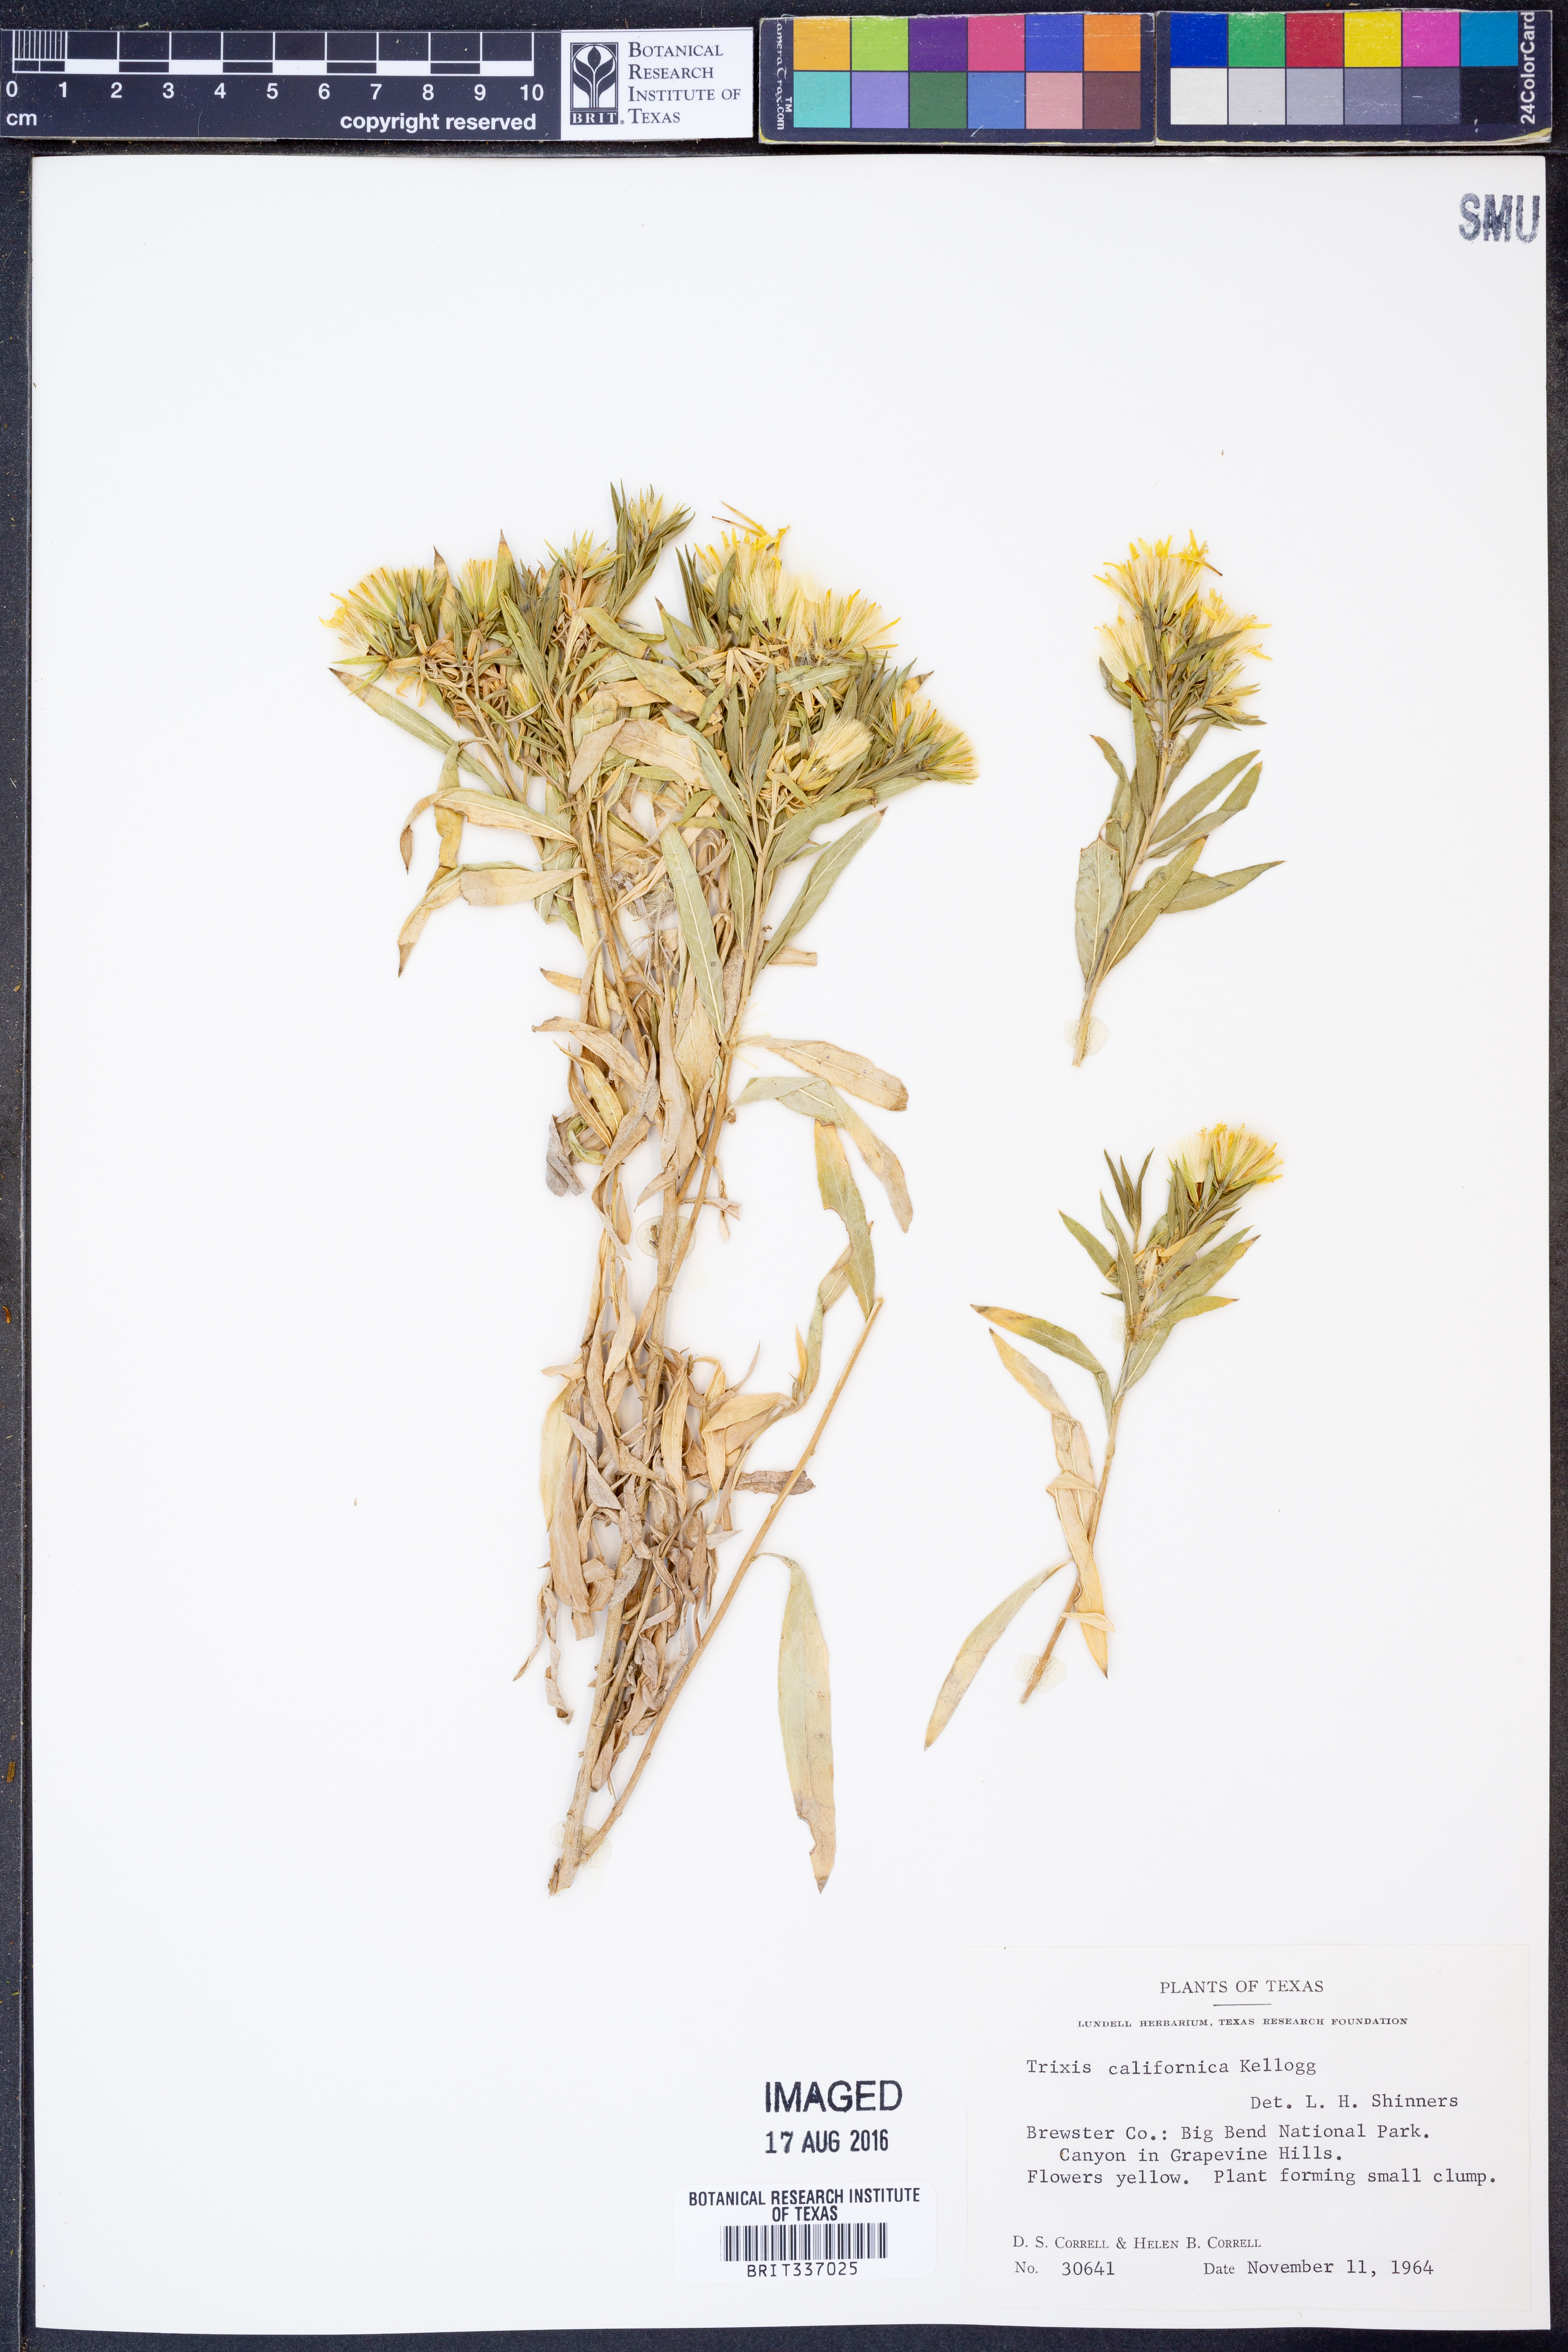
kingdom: Plantae
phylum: Tracheophyta
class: Magnoliopsida
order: Asterales
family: Asteraceae
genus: Trixis
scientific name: Trixis californica
